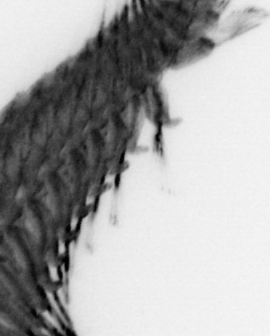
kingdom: Animalia
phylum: Annelida
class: Polychaeta
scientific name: Polychaeta
